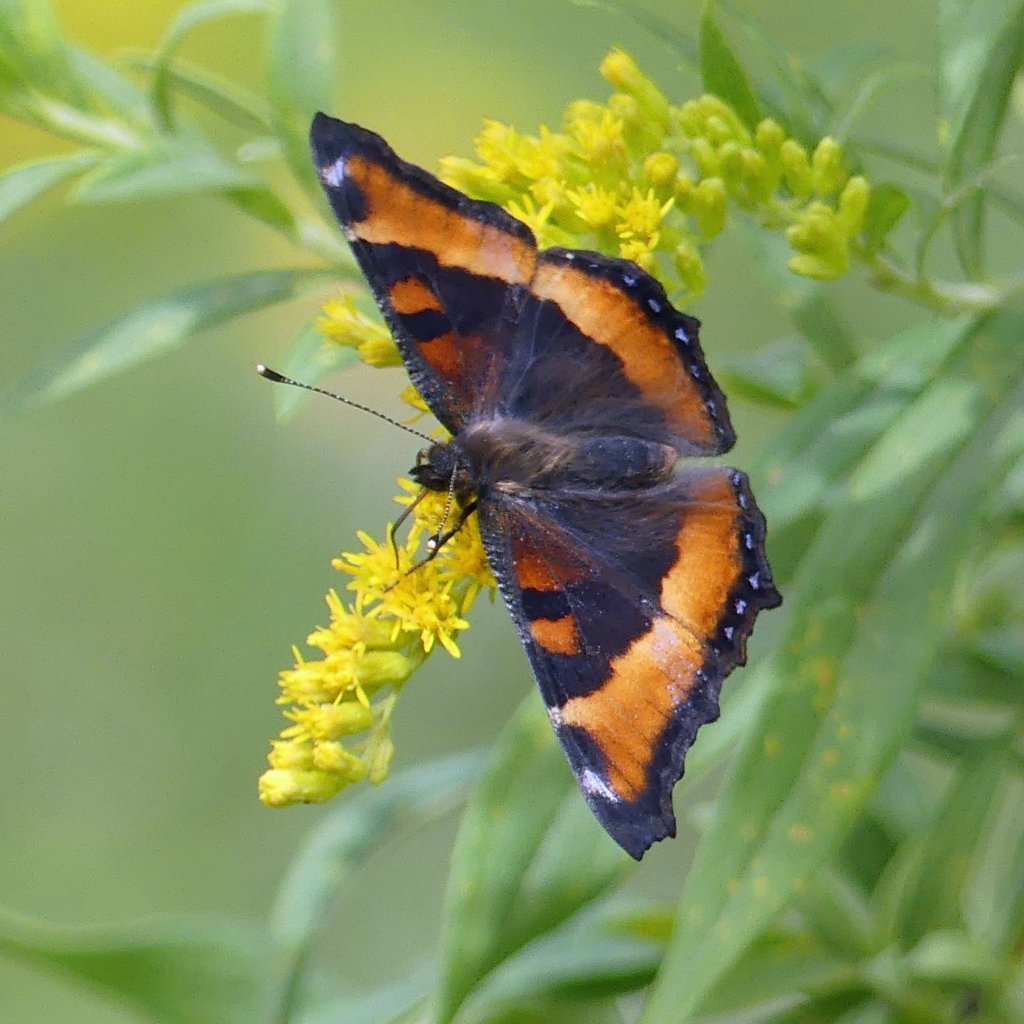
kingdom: Animalia
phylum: Arthropoda
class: Insecta
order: Lepidoptera
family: Nymphalidae
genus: Aglais
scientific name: Aglais milberti
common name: Milbert's Tortoiseshell
